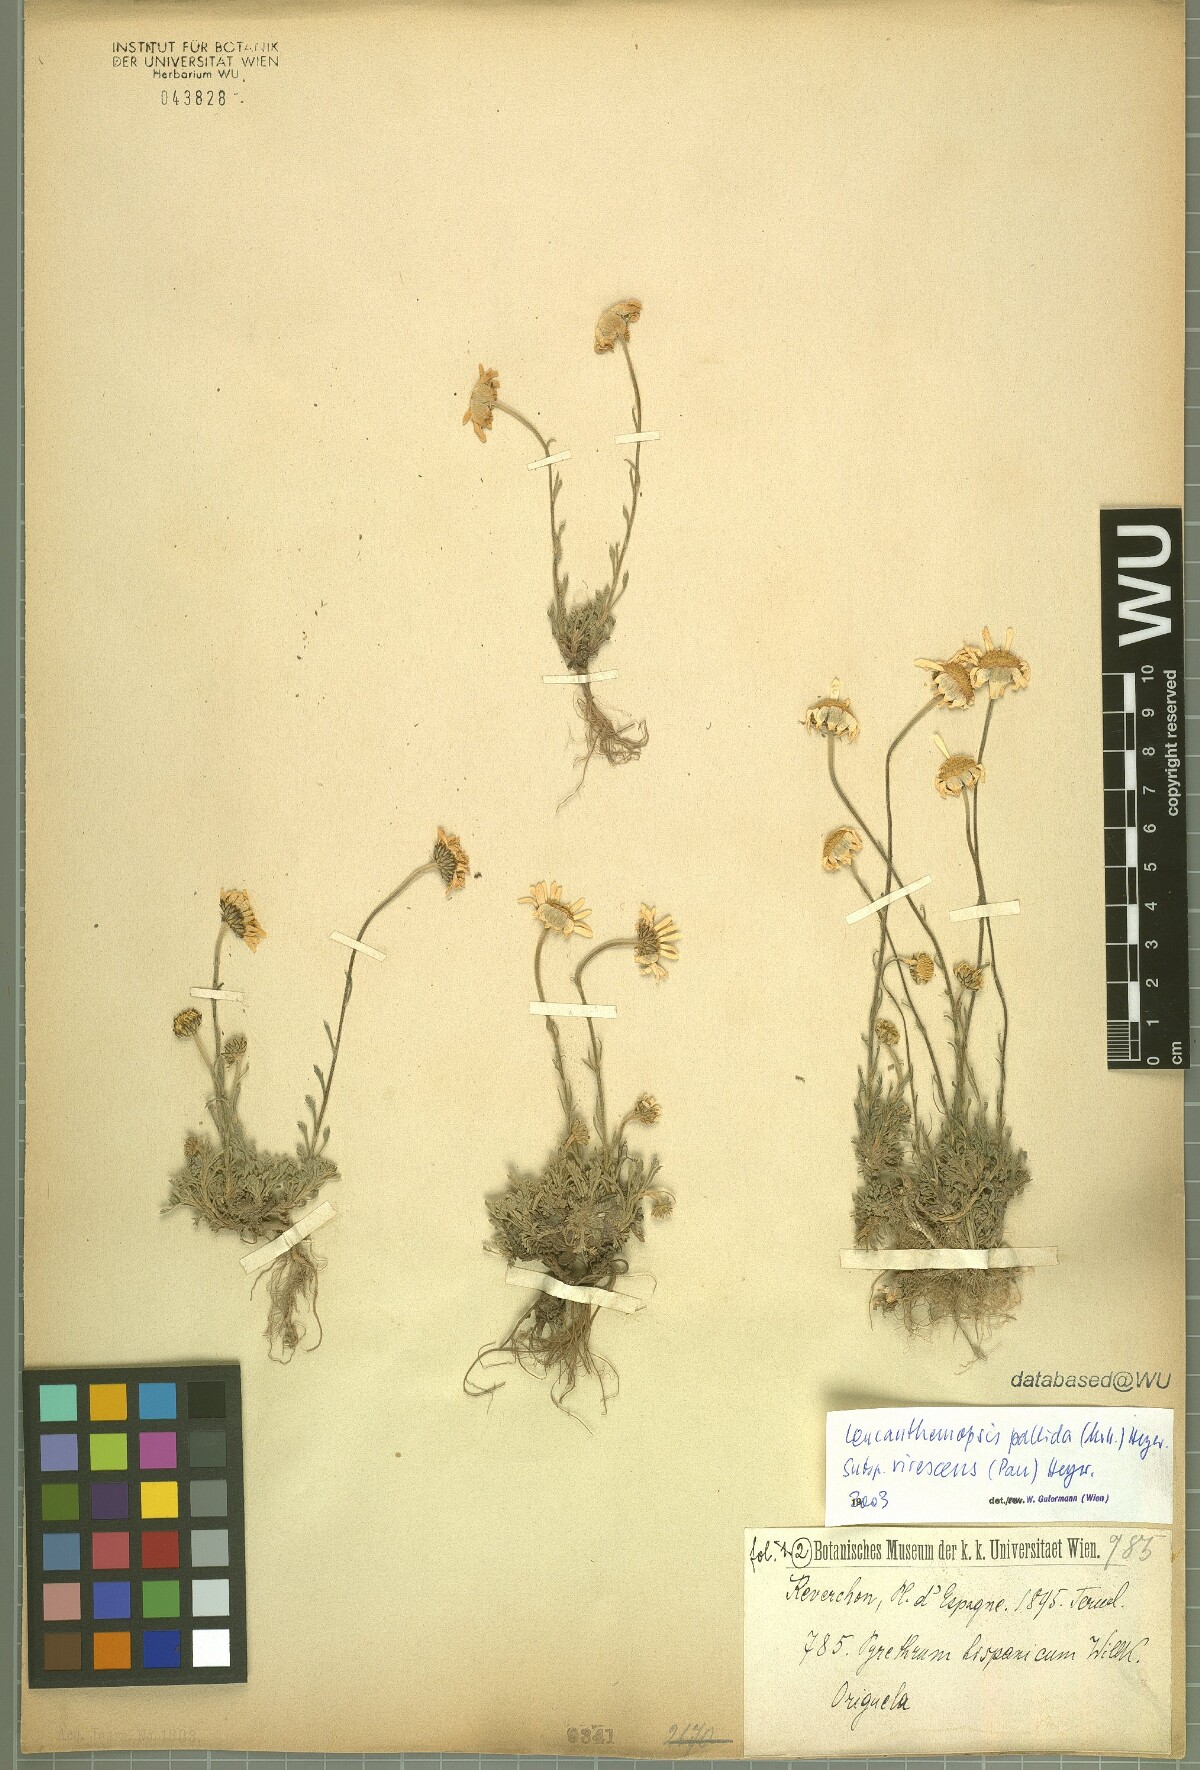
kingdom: Plantae
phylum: Tracheophyta
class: Magnoliopsida
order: Asterales
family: Asteraceae
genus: Leucanthemopsis
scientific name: Leucanthemopsis pallida
